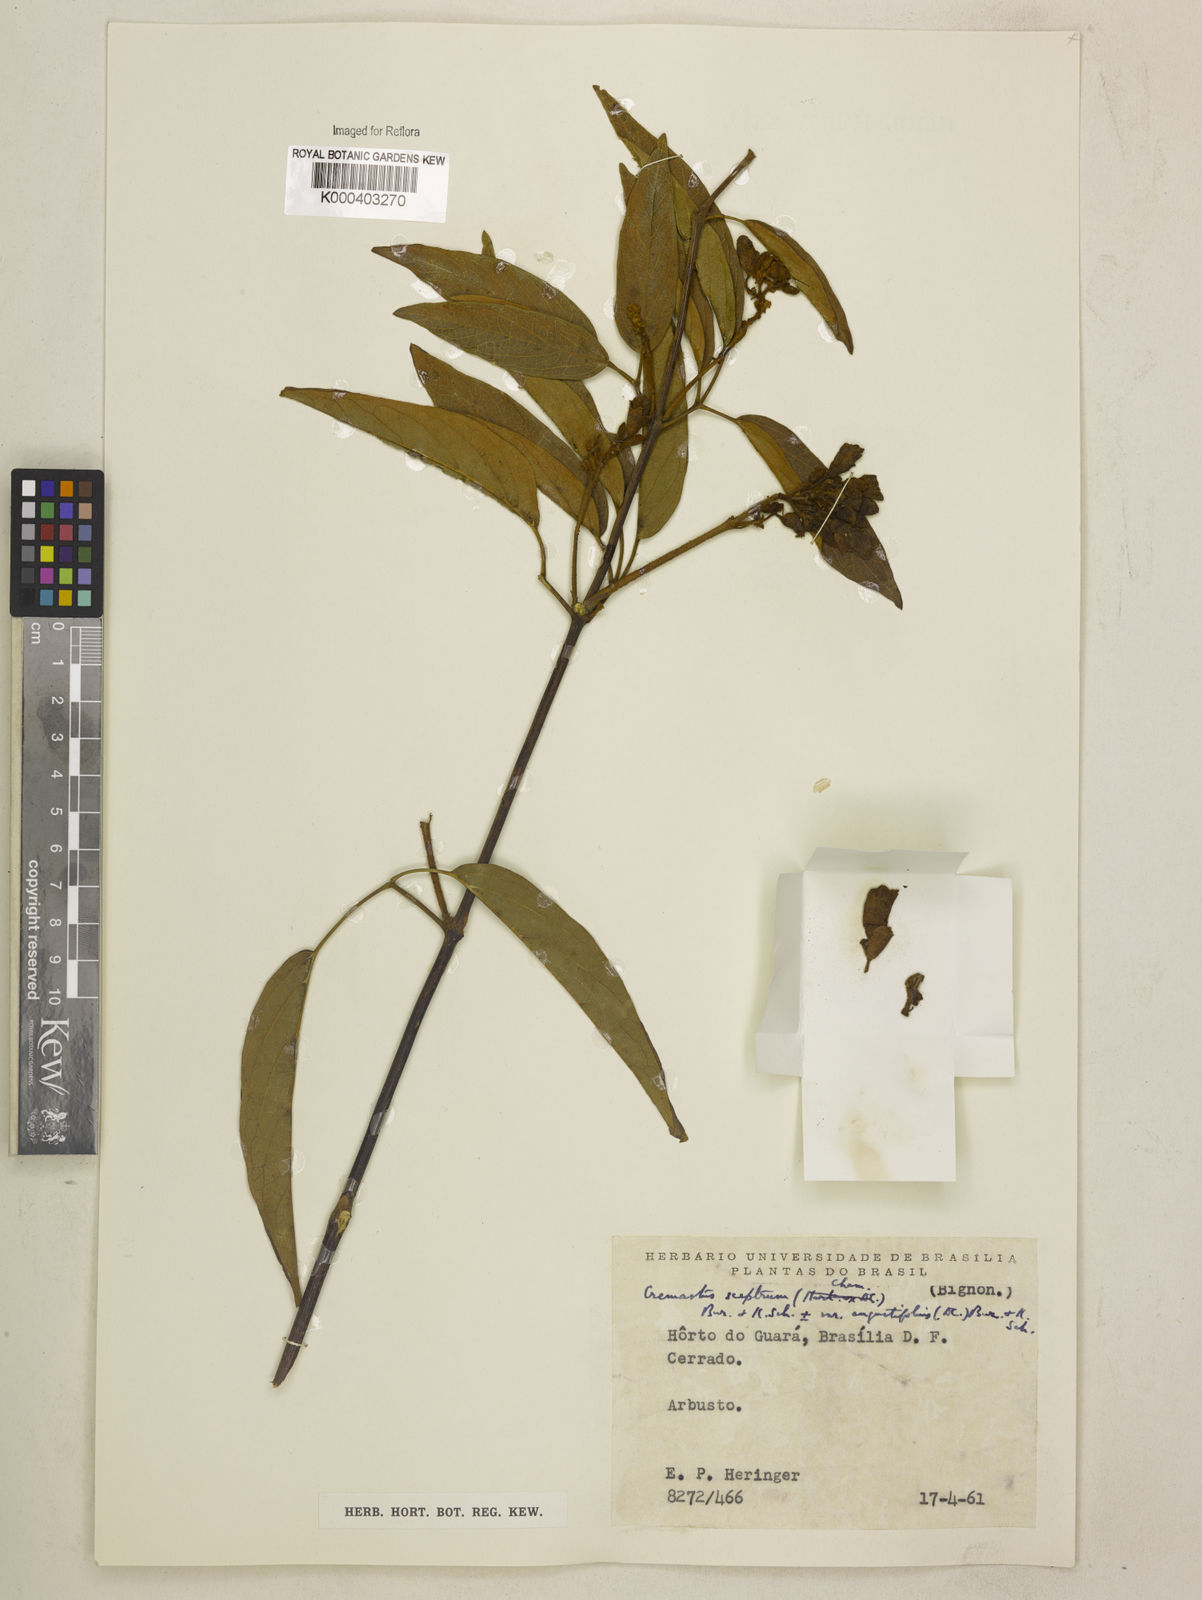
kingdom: Plantae
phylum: Tracheophyta
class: Magnoliopsida
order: Lamiales
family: Bignoniaceae
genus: Cuspidaria
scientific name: Cuspidaria sceptrum
